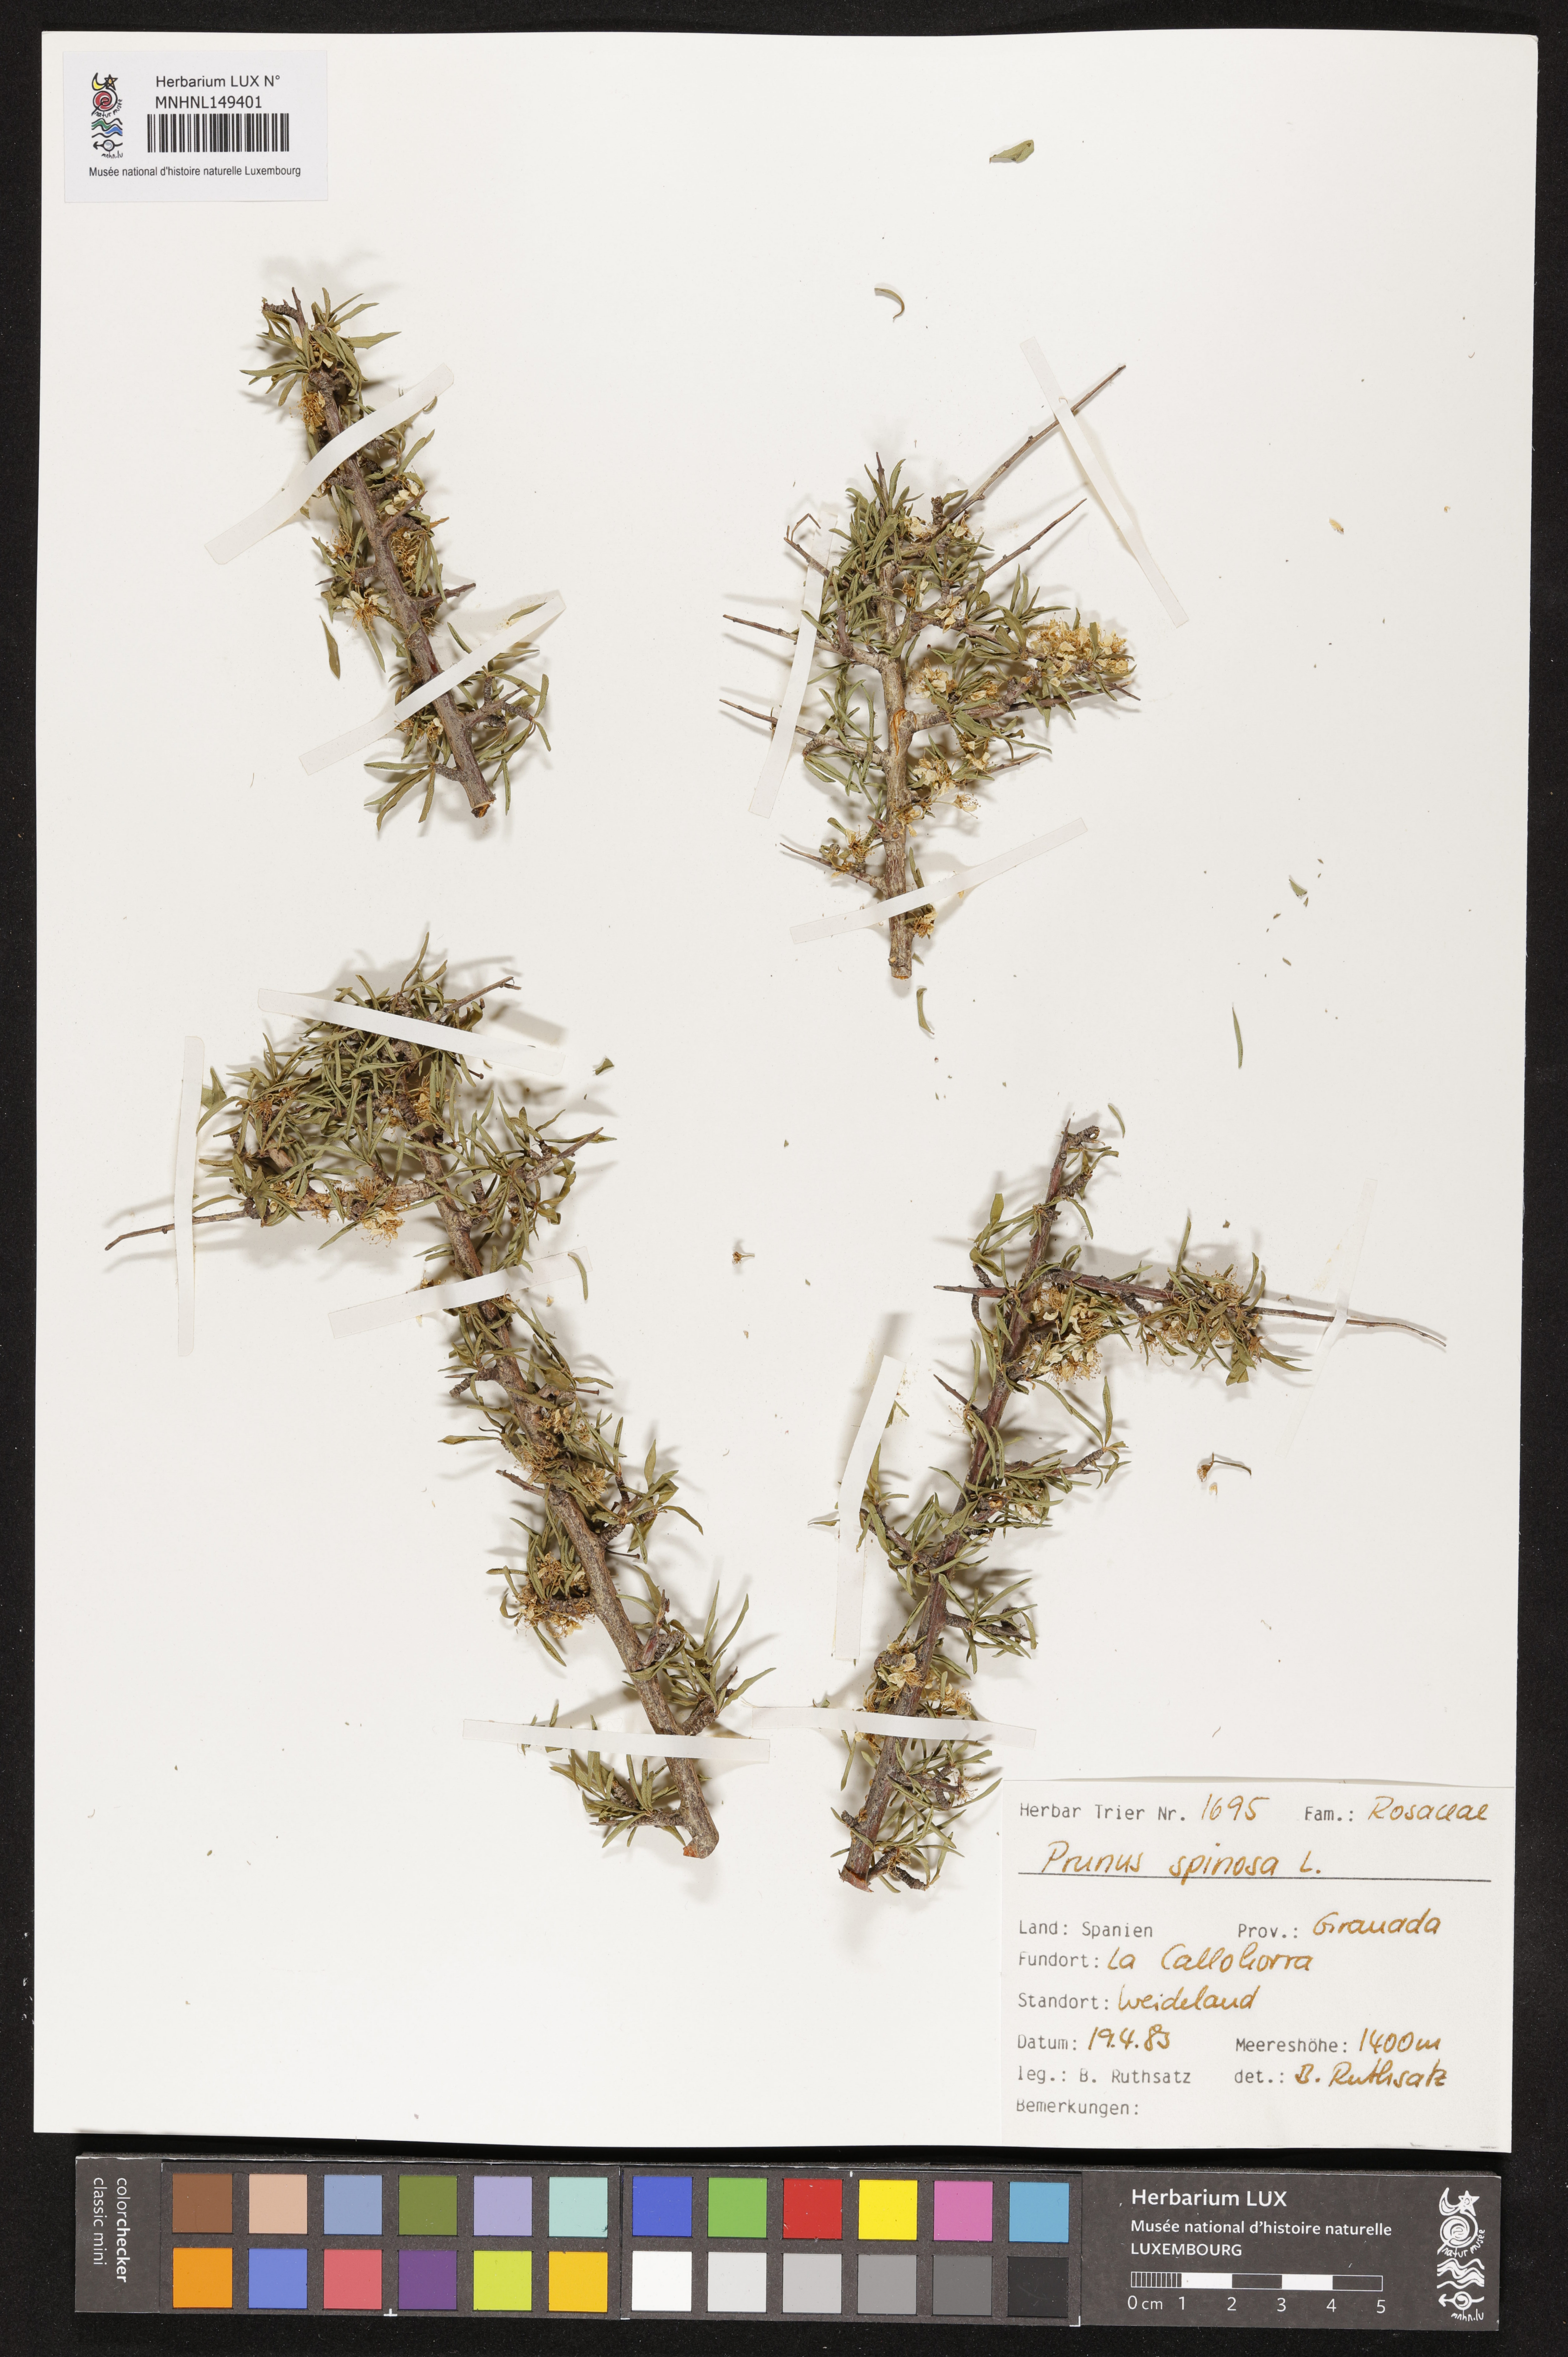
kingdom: Plantae
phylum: Tracheophyta
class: Magnoliopsida
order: Rosales
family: Rosaceae
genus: Prunus
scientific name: Prunus spinosa
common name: Blackthorn
